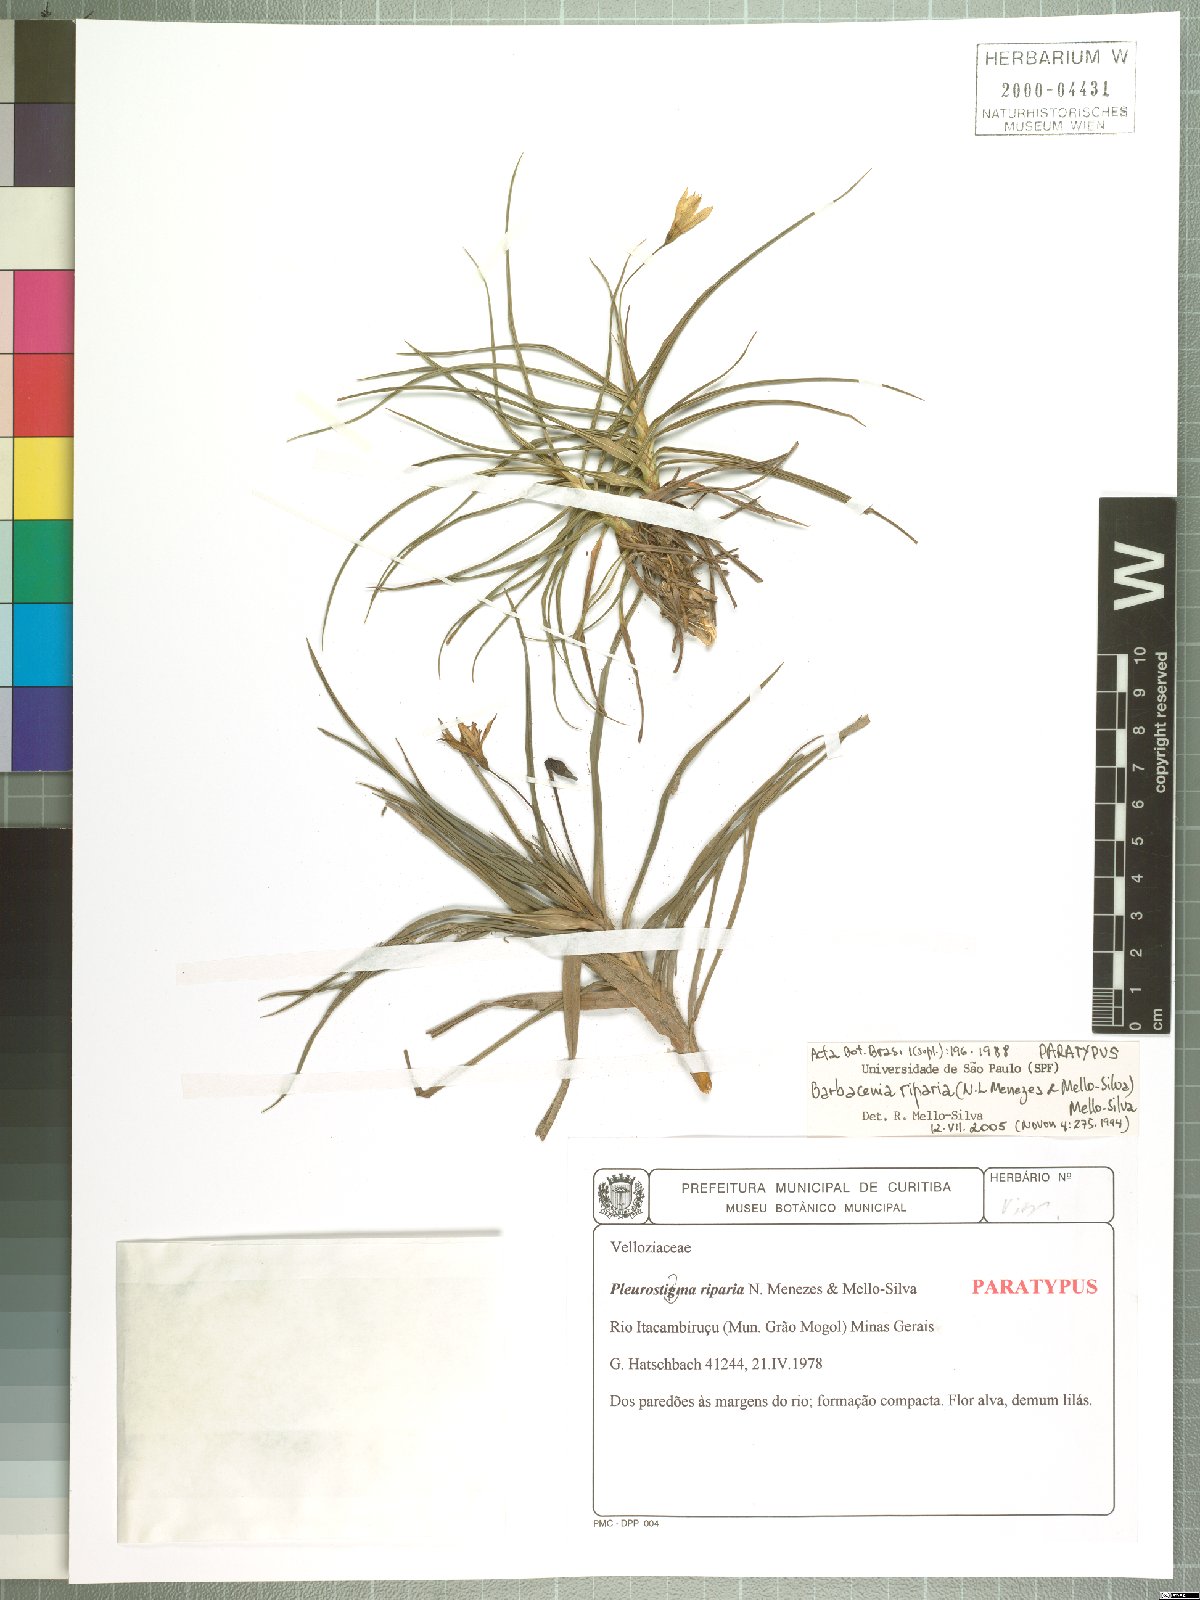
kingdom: Plantae
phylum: Tracheophyta
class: Liliopsida
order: Pandanales
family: Velloziaceae
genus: Barbacenia
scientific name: Barbacenia riparia
